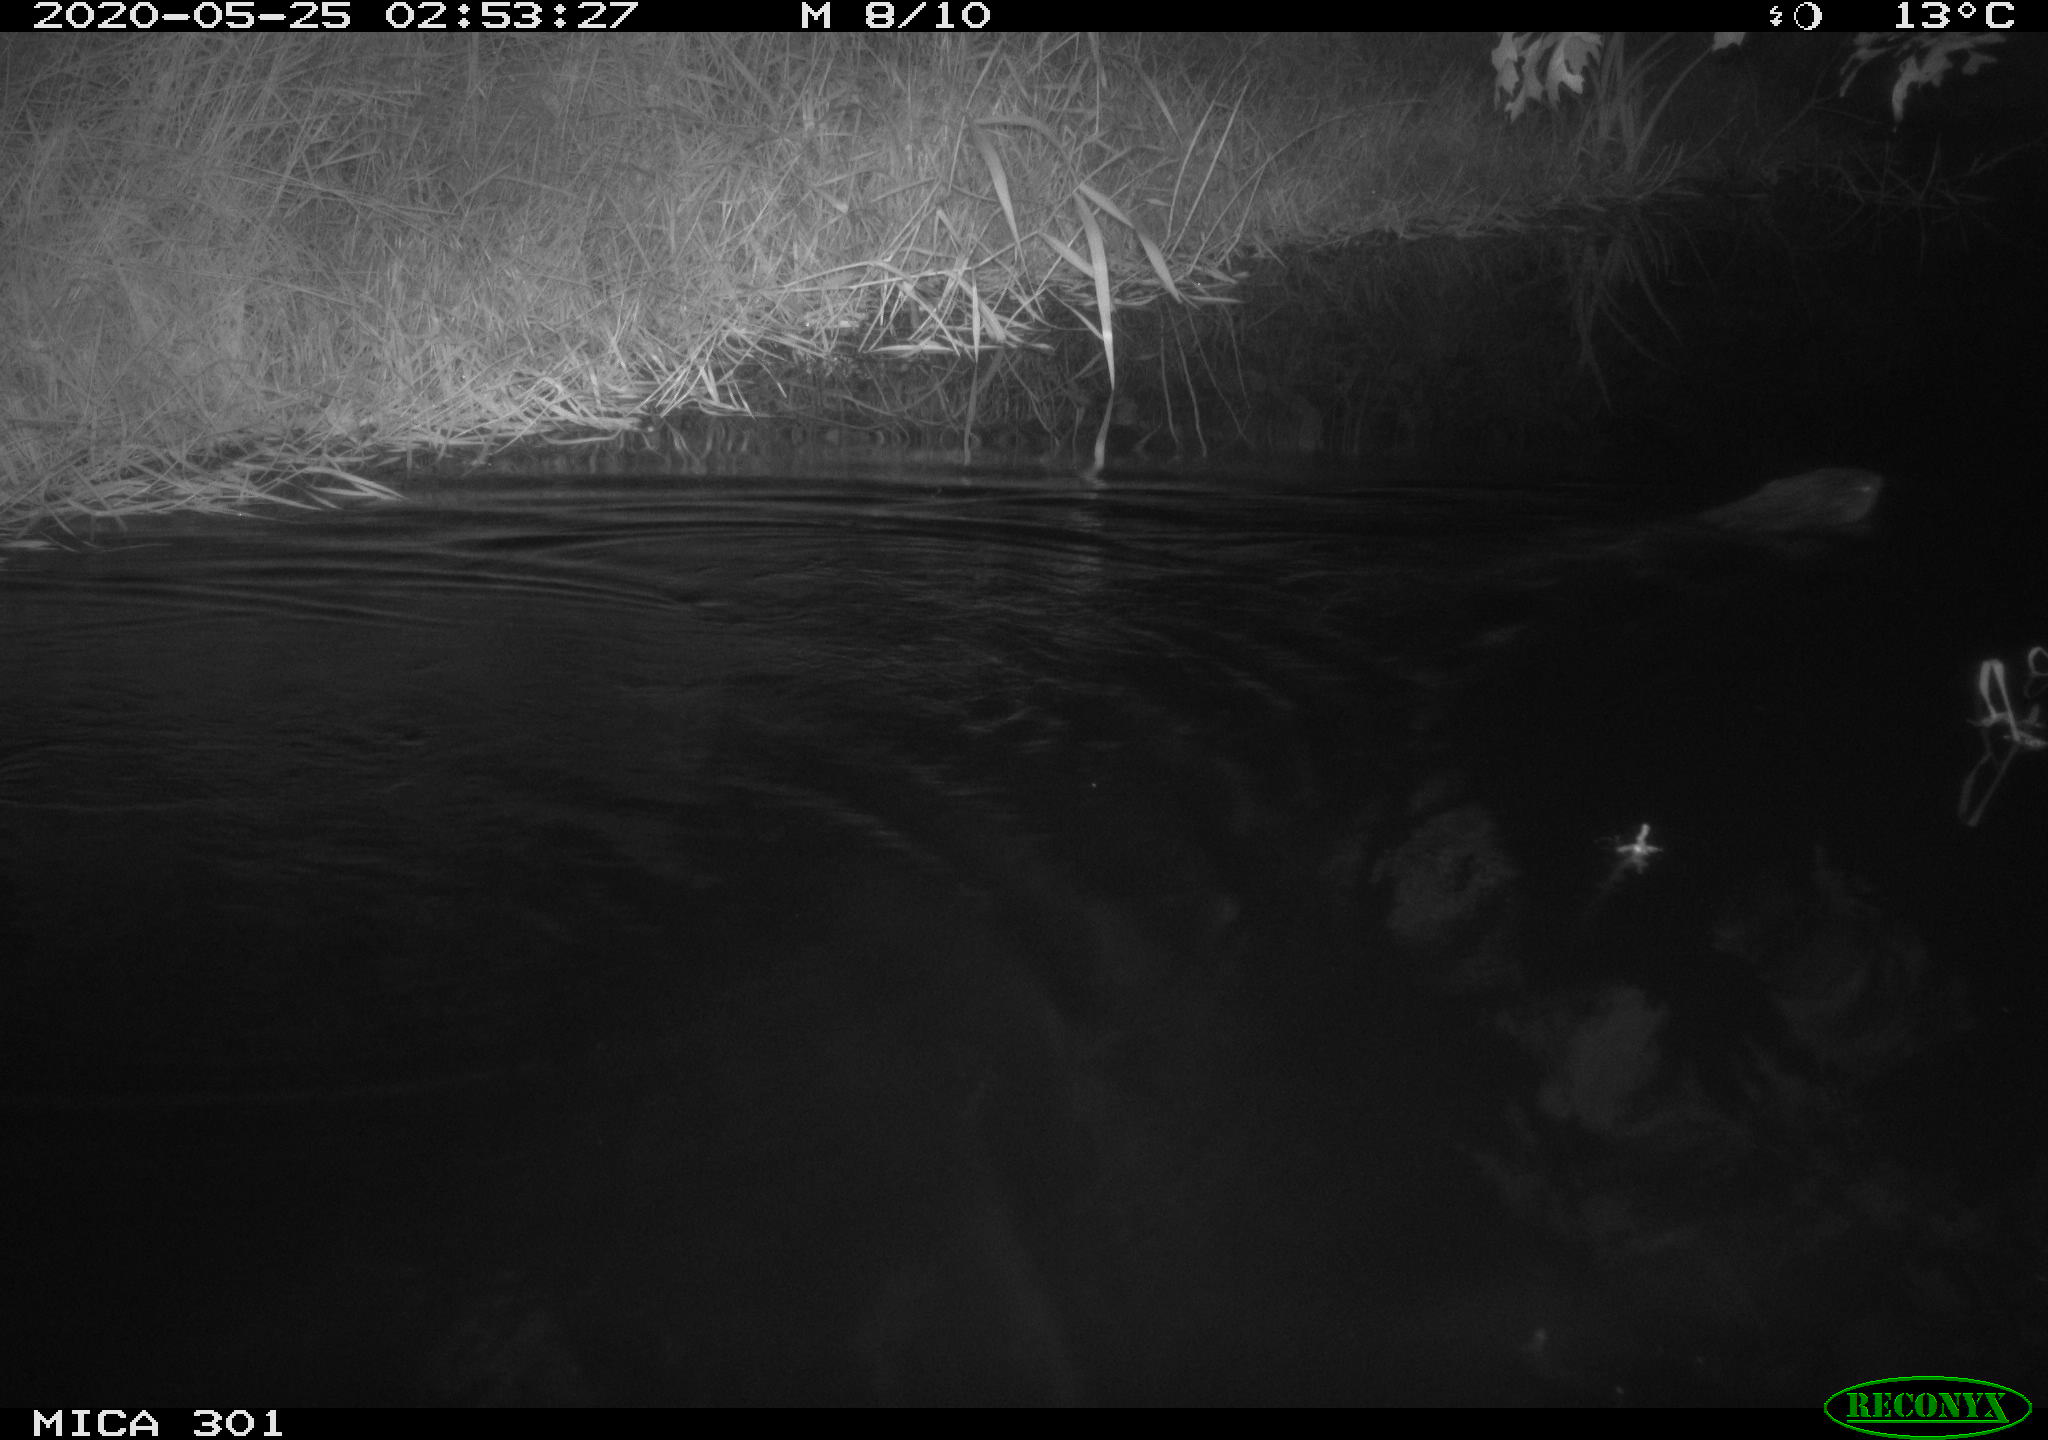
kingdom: Animalia
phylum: Chordata
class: Mammalia
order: Rodentia
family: Castoridae
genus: Castor
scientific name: Castor fiber
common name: Eurasian beaver
